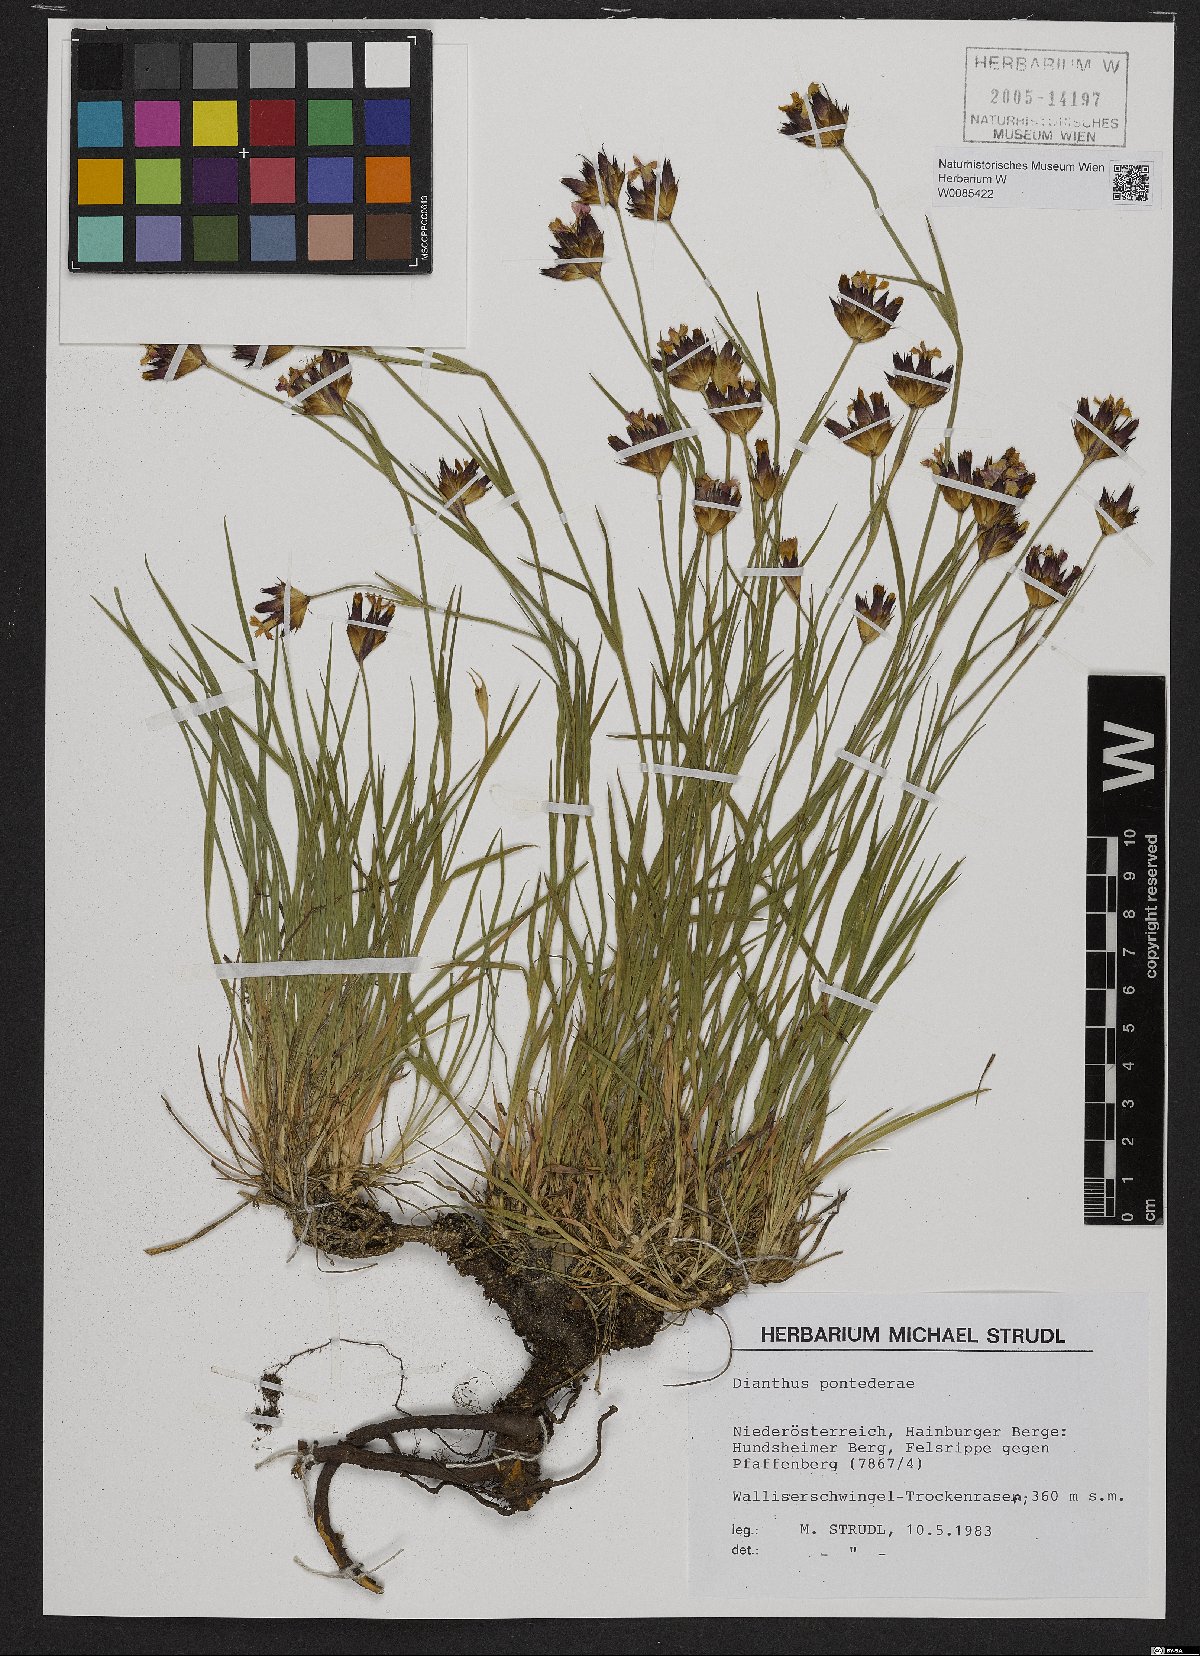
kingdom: Plantae
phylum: Tracheophyta
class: Magnoliopsida
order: Caryophyllales
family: Caryophyllaceae
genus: Dianthus
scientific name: Dianthus pontederae
